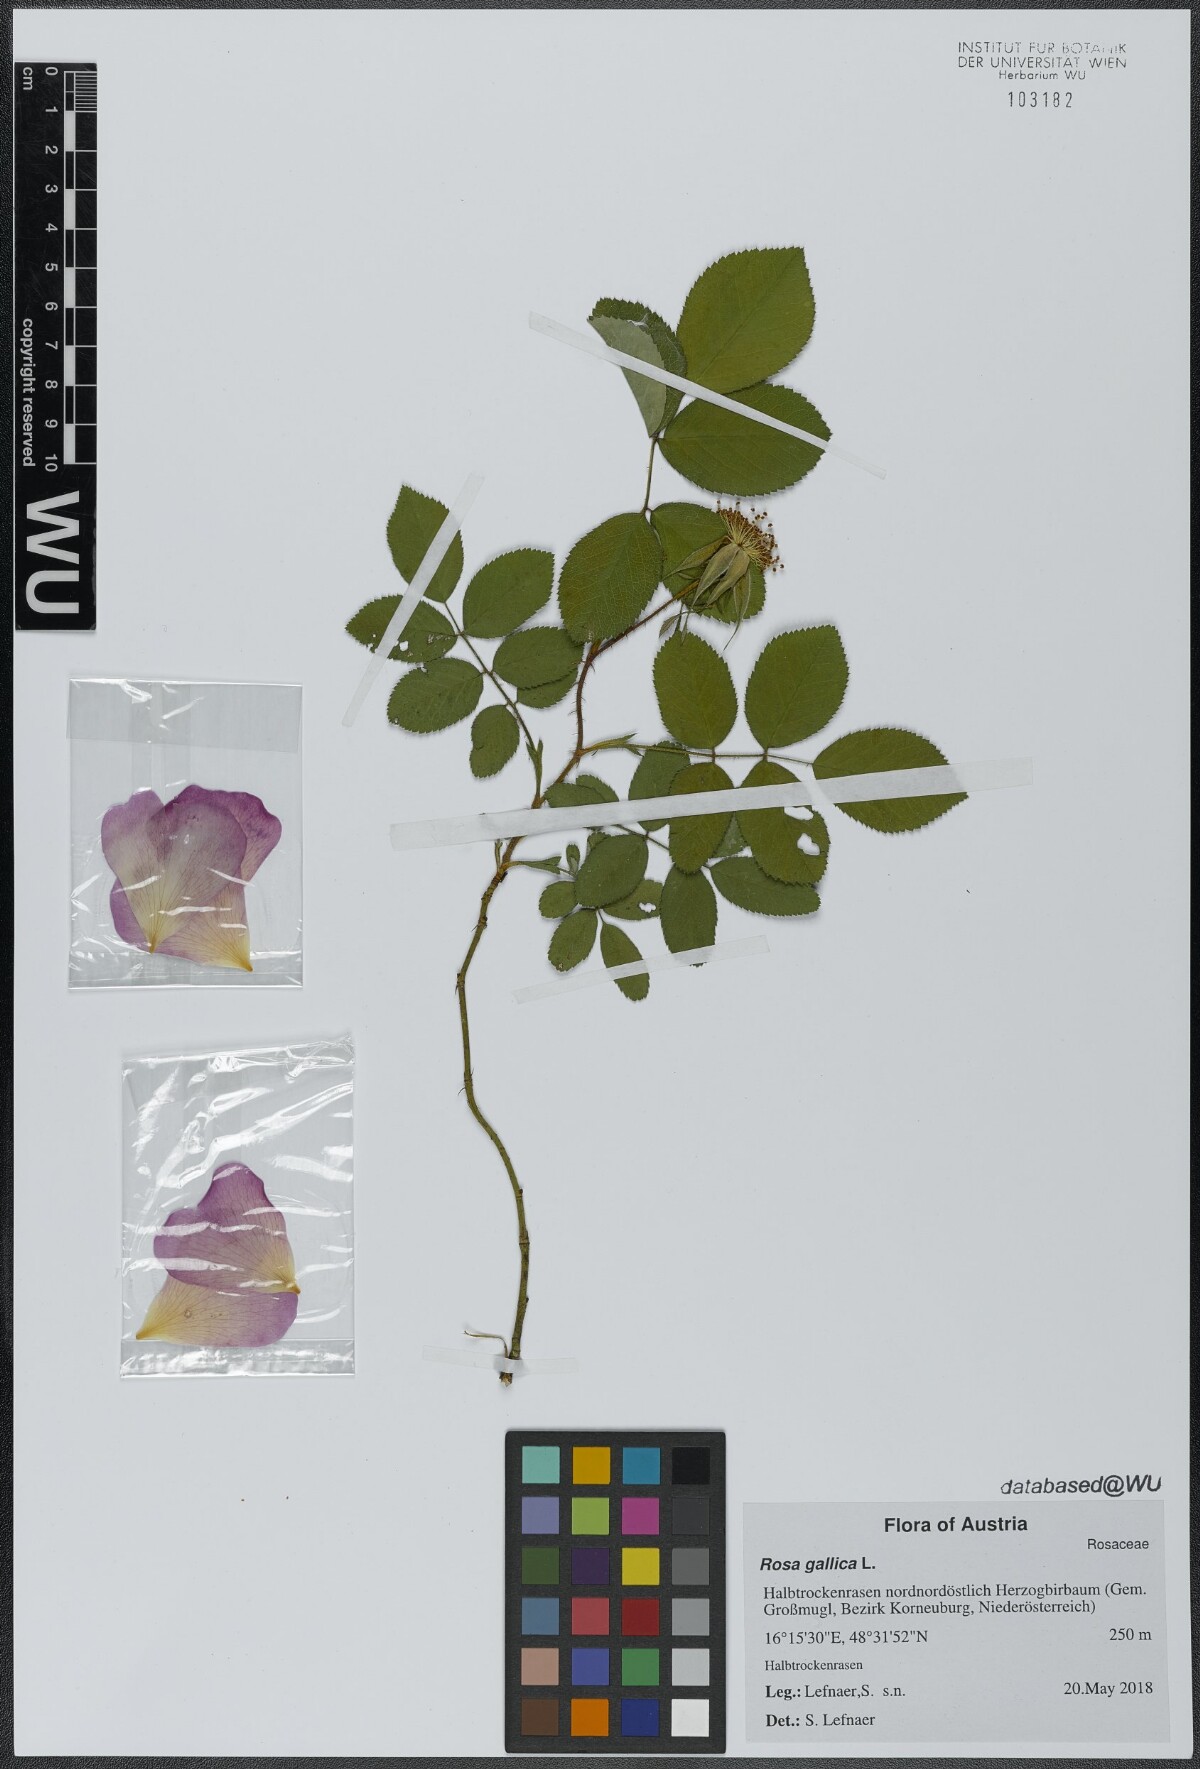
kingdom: Plantae
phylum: Tracheophyta
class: Magnoliopsida
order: Rosales
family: Rosaceae
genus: Rosa
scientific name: Rosa gallica
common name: French rose
